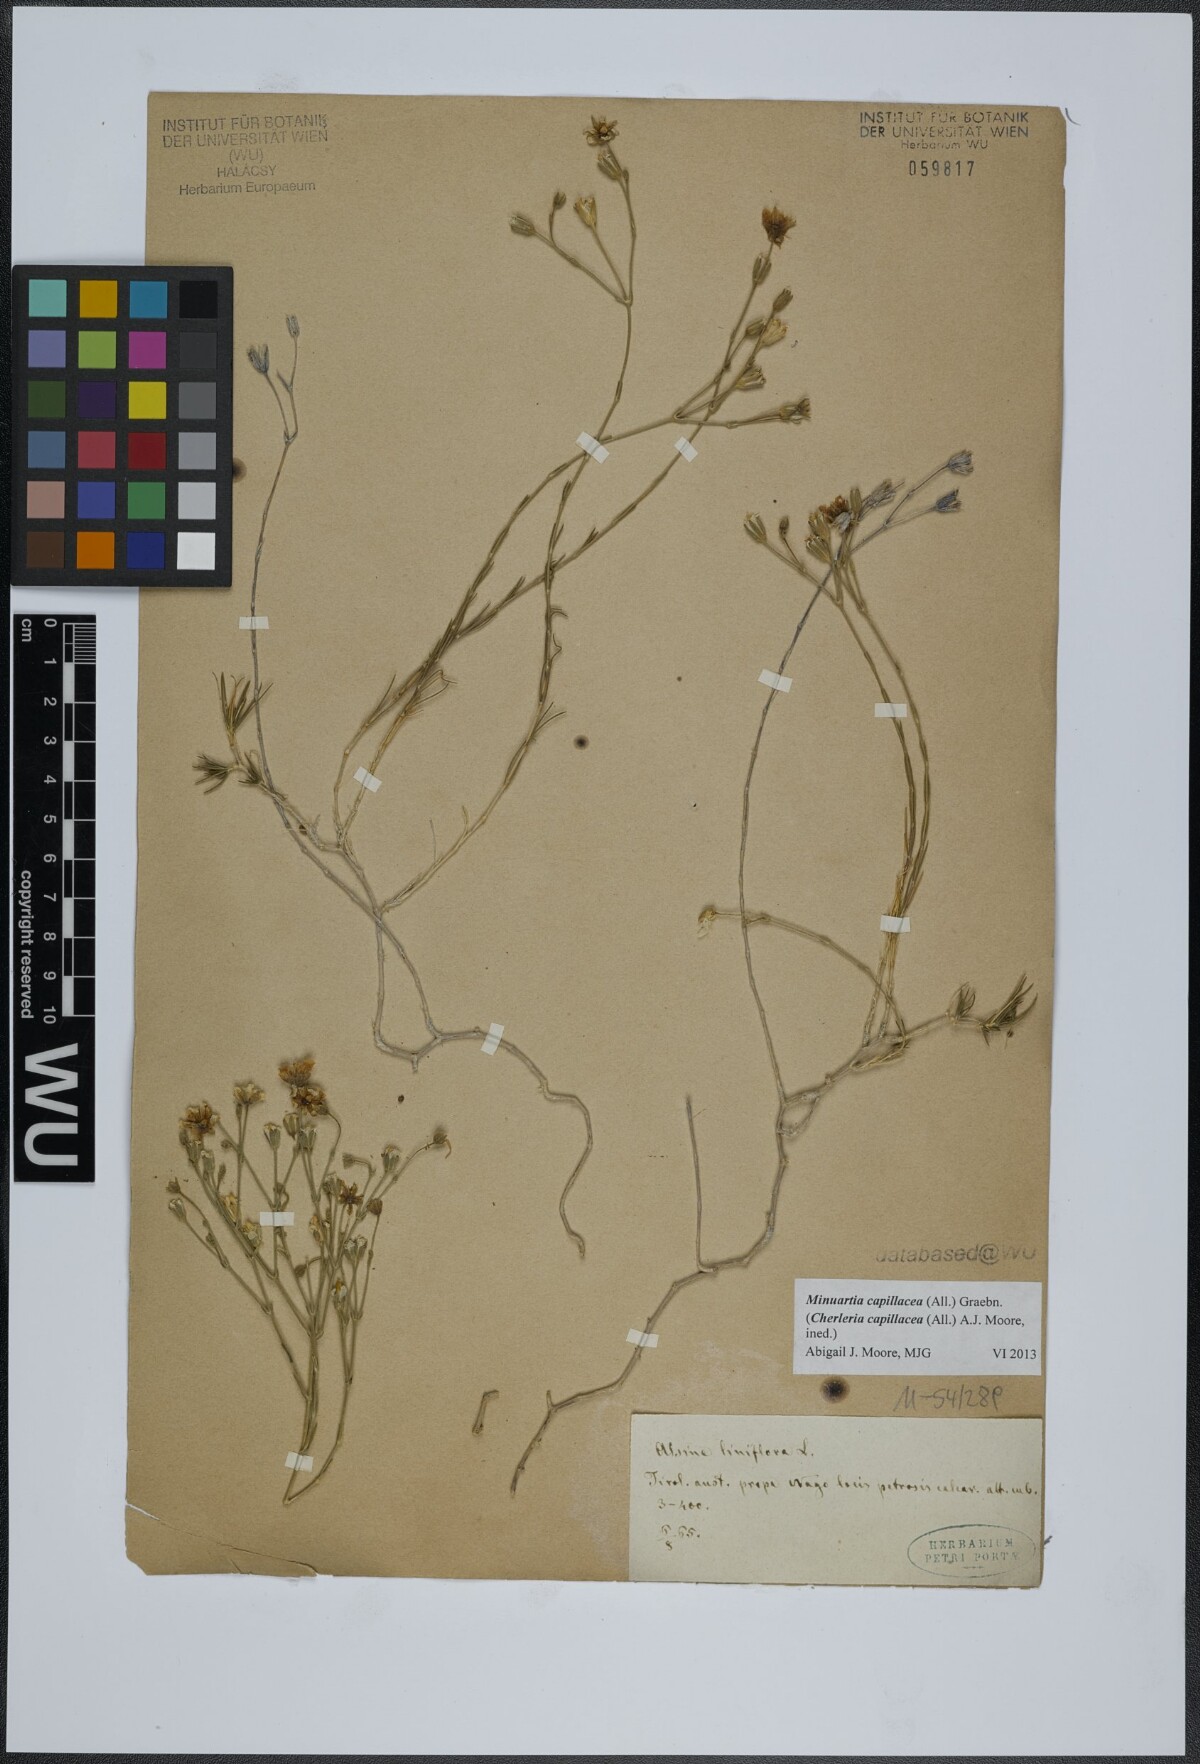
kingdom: Plantae
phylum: Tracheophyta
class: Magnoliopsida
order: Caryophyllales
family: Caryophyllaceae
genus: Cherleria
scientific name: Cherleria capillacea
